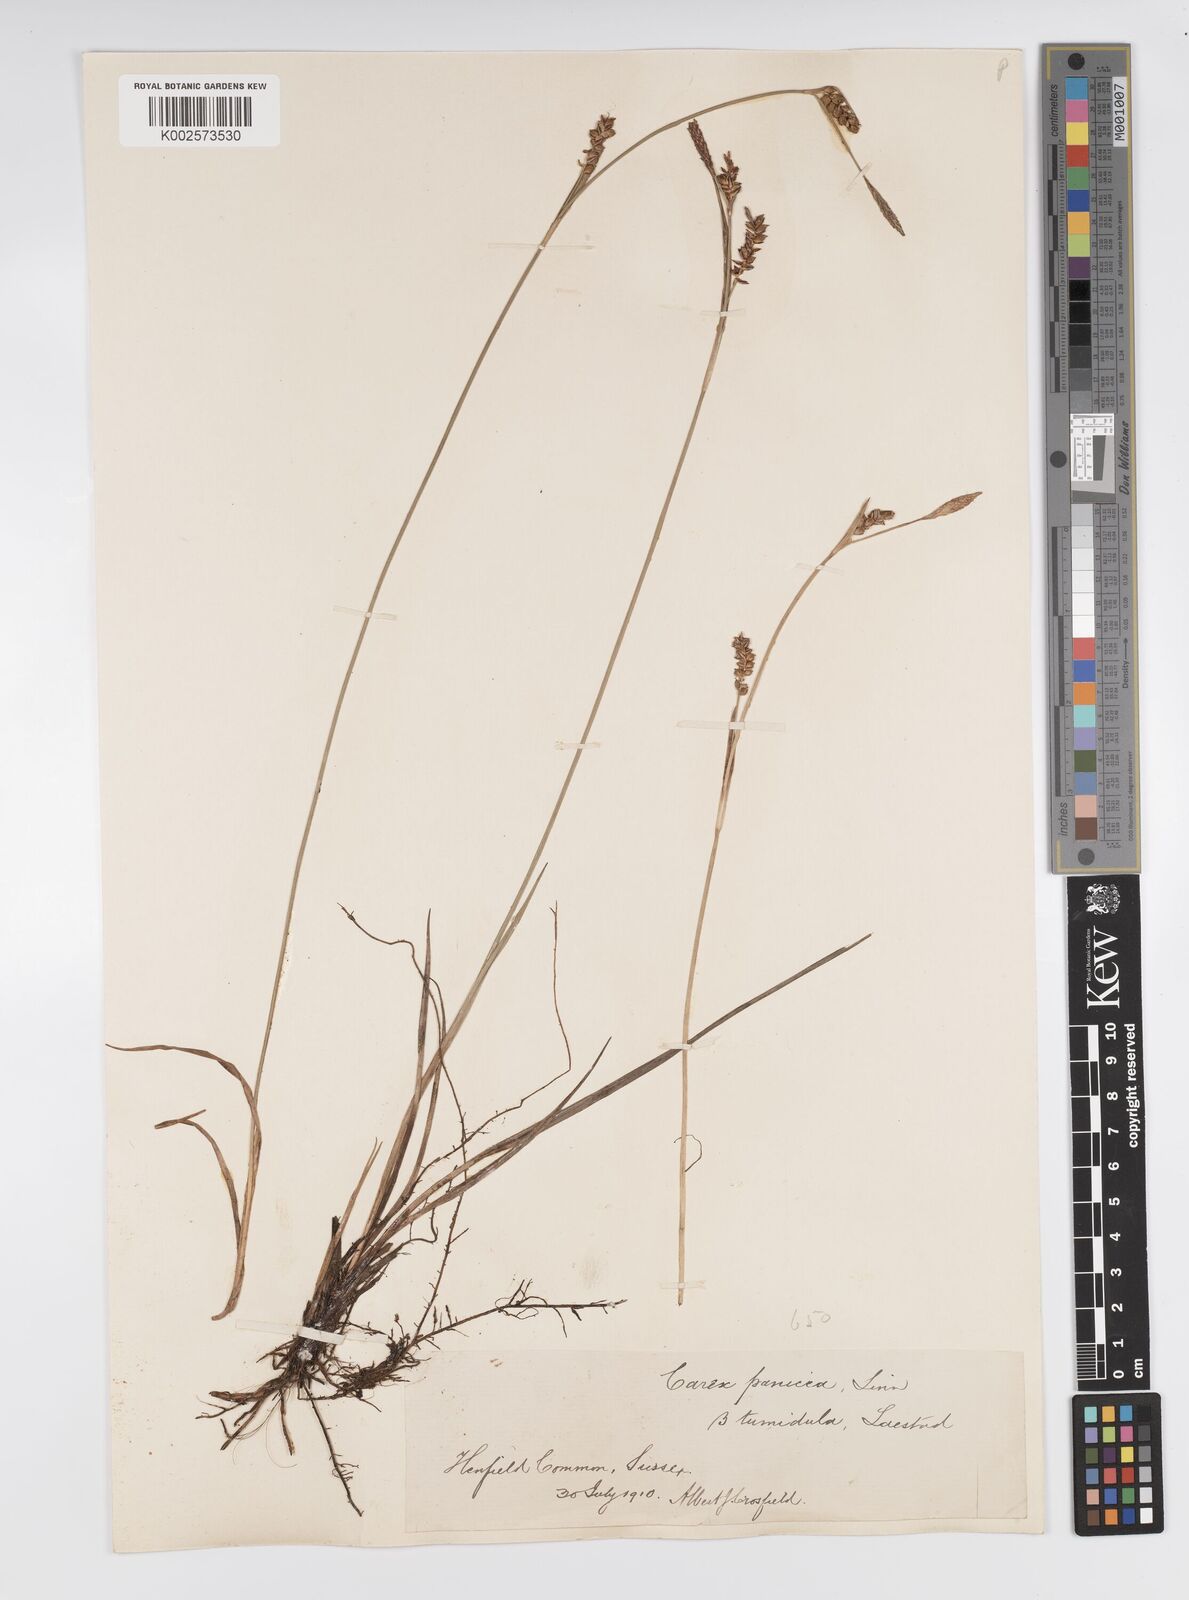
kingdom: Plantae
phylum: Tracheophyta
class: Liliopsida
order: Poales
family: Cyperaceae
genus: Carex
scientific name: Carex panicea
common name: Carnation sedge
